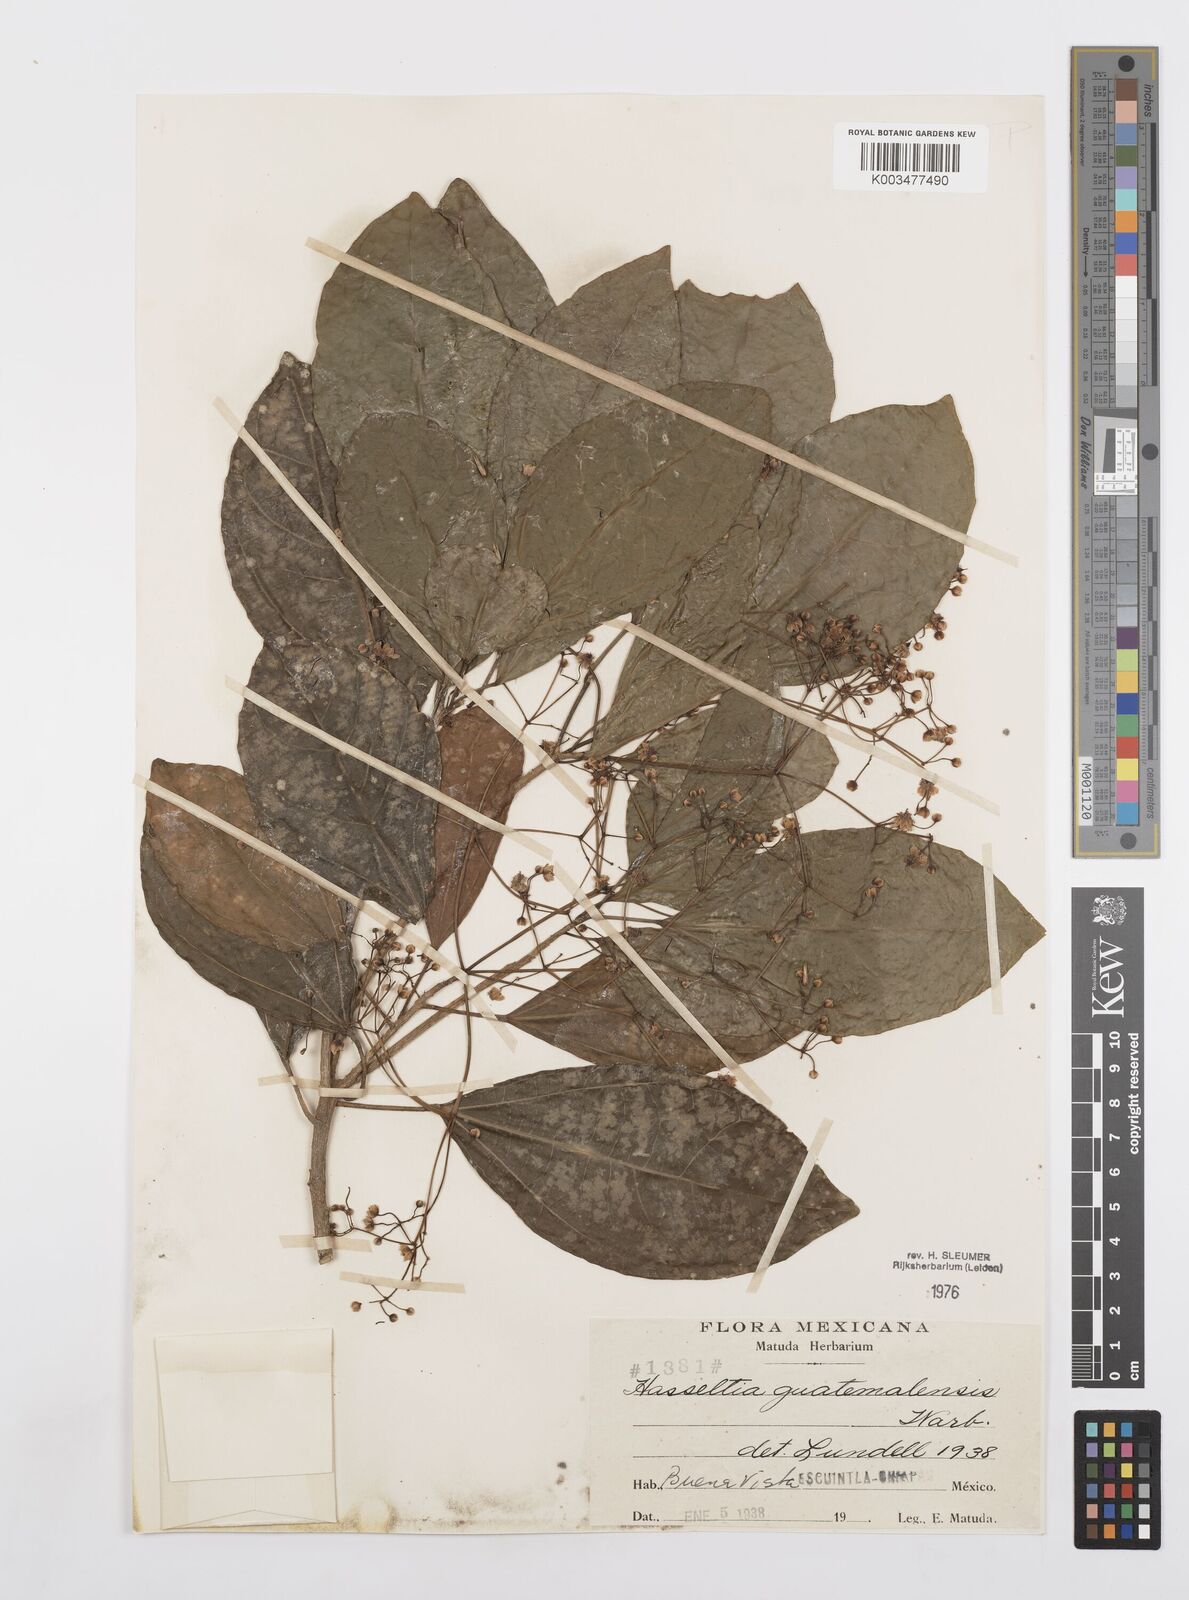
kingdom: Plantae
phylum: Tracheophyta
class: Magnoliopsida
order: Malpighiales
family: Salicaceae
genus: Hasseltia
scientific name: Hasseltia guatemalensis
